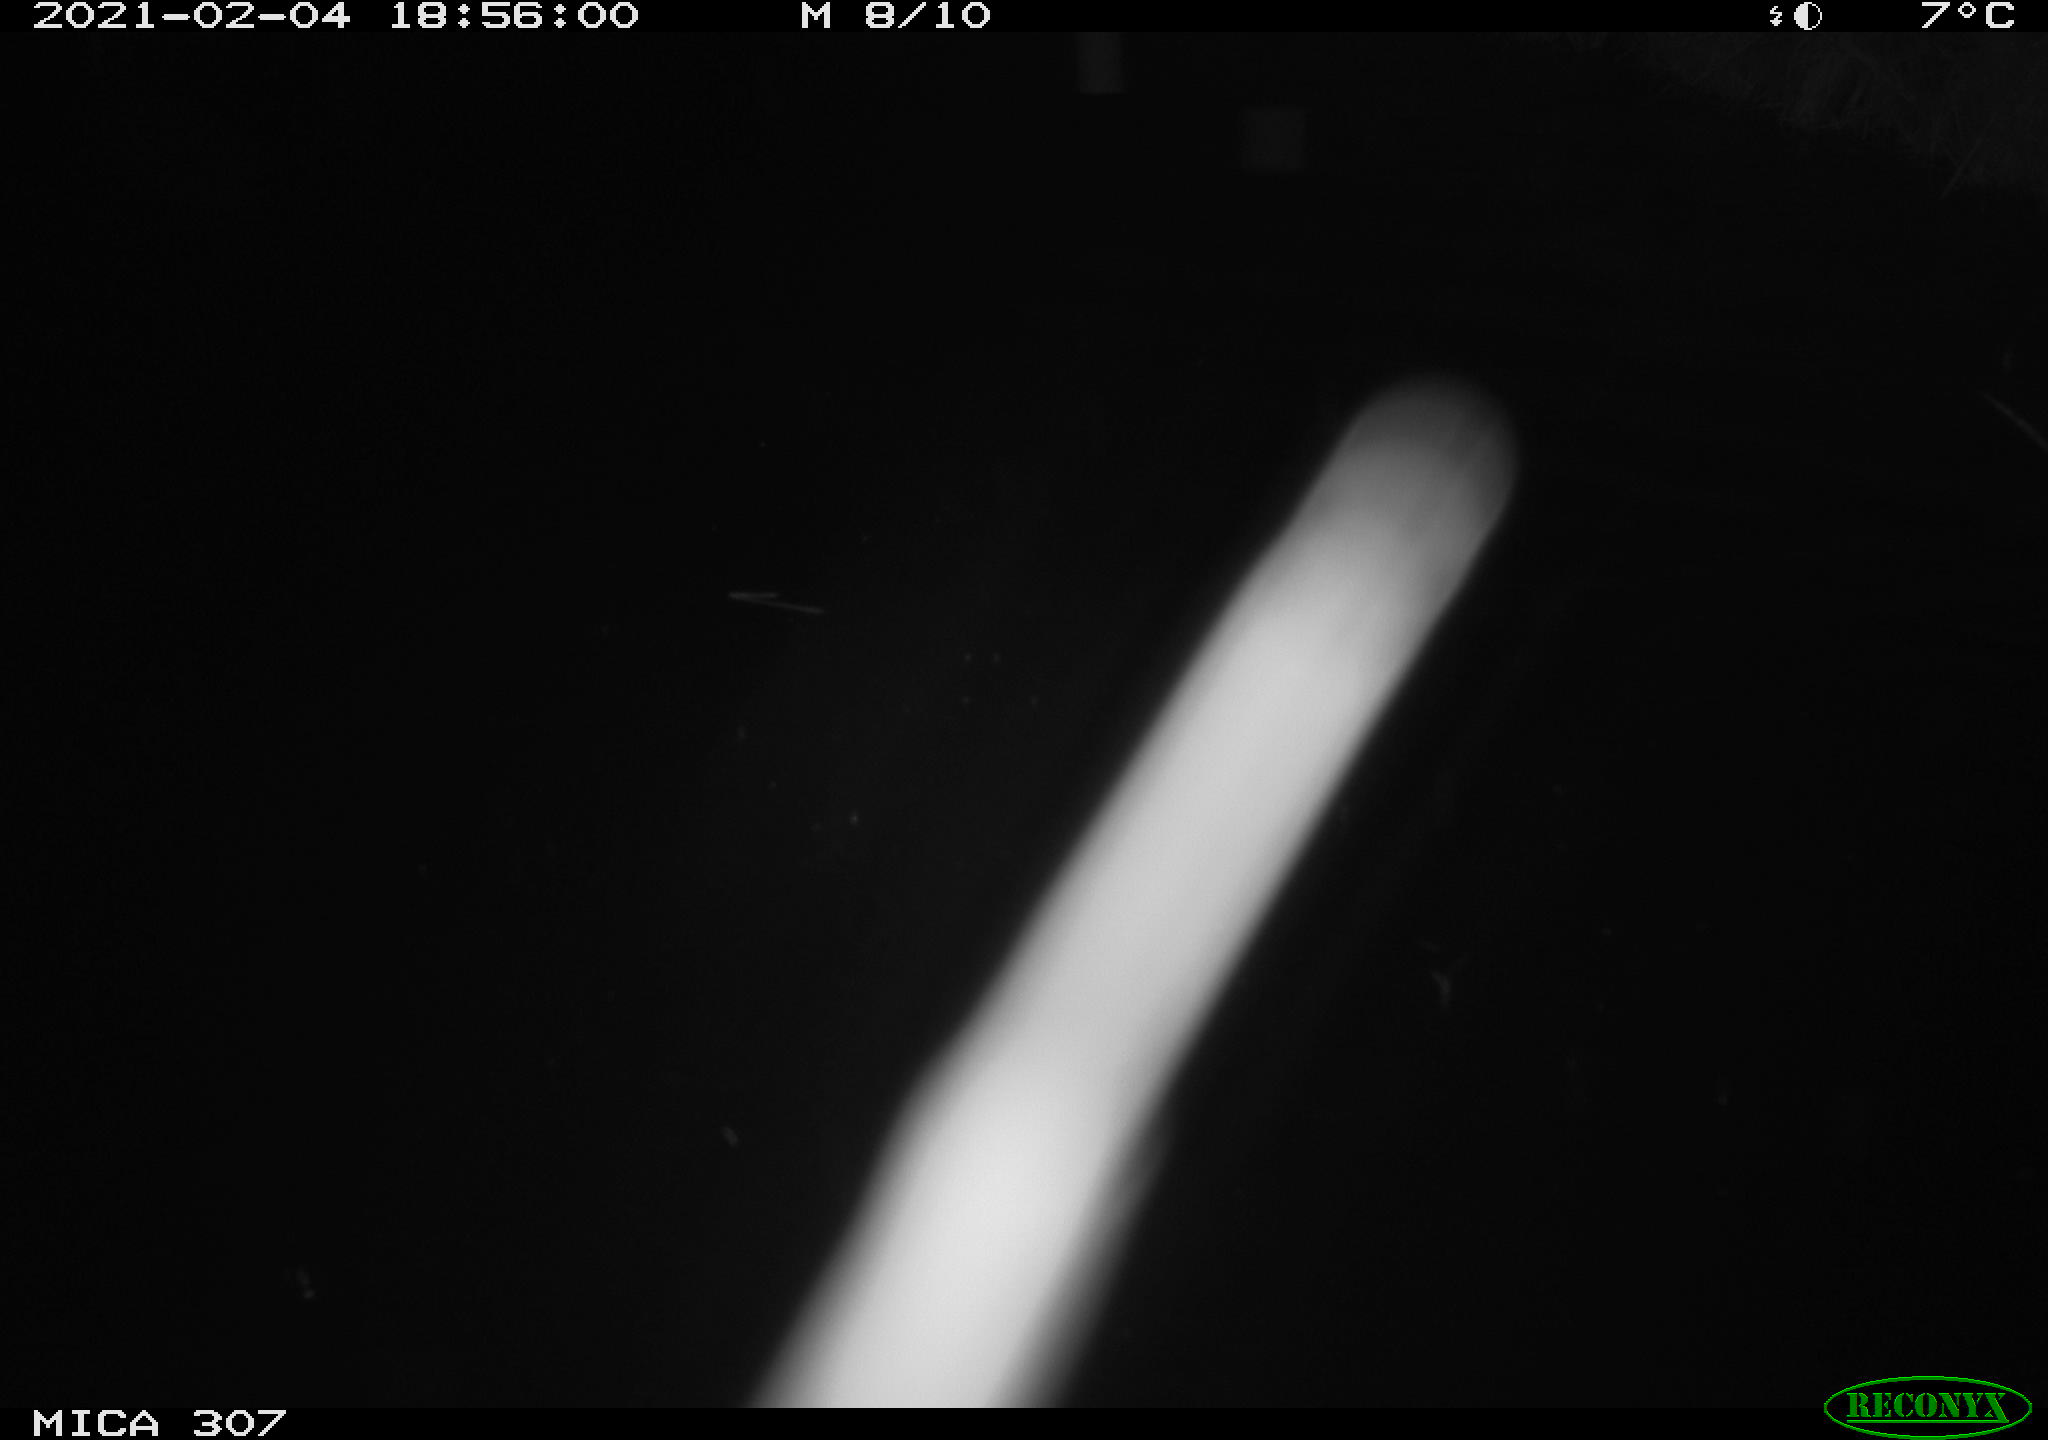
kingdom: Animalia
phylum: Chordata
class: Mammalia
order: Rodentia
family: Muridae
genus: Rattus
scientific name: Rattus norvegicus
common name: Brown rat
